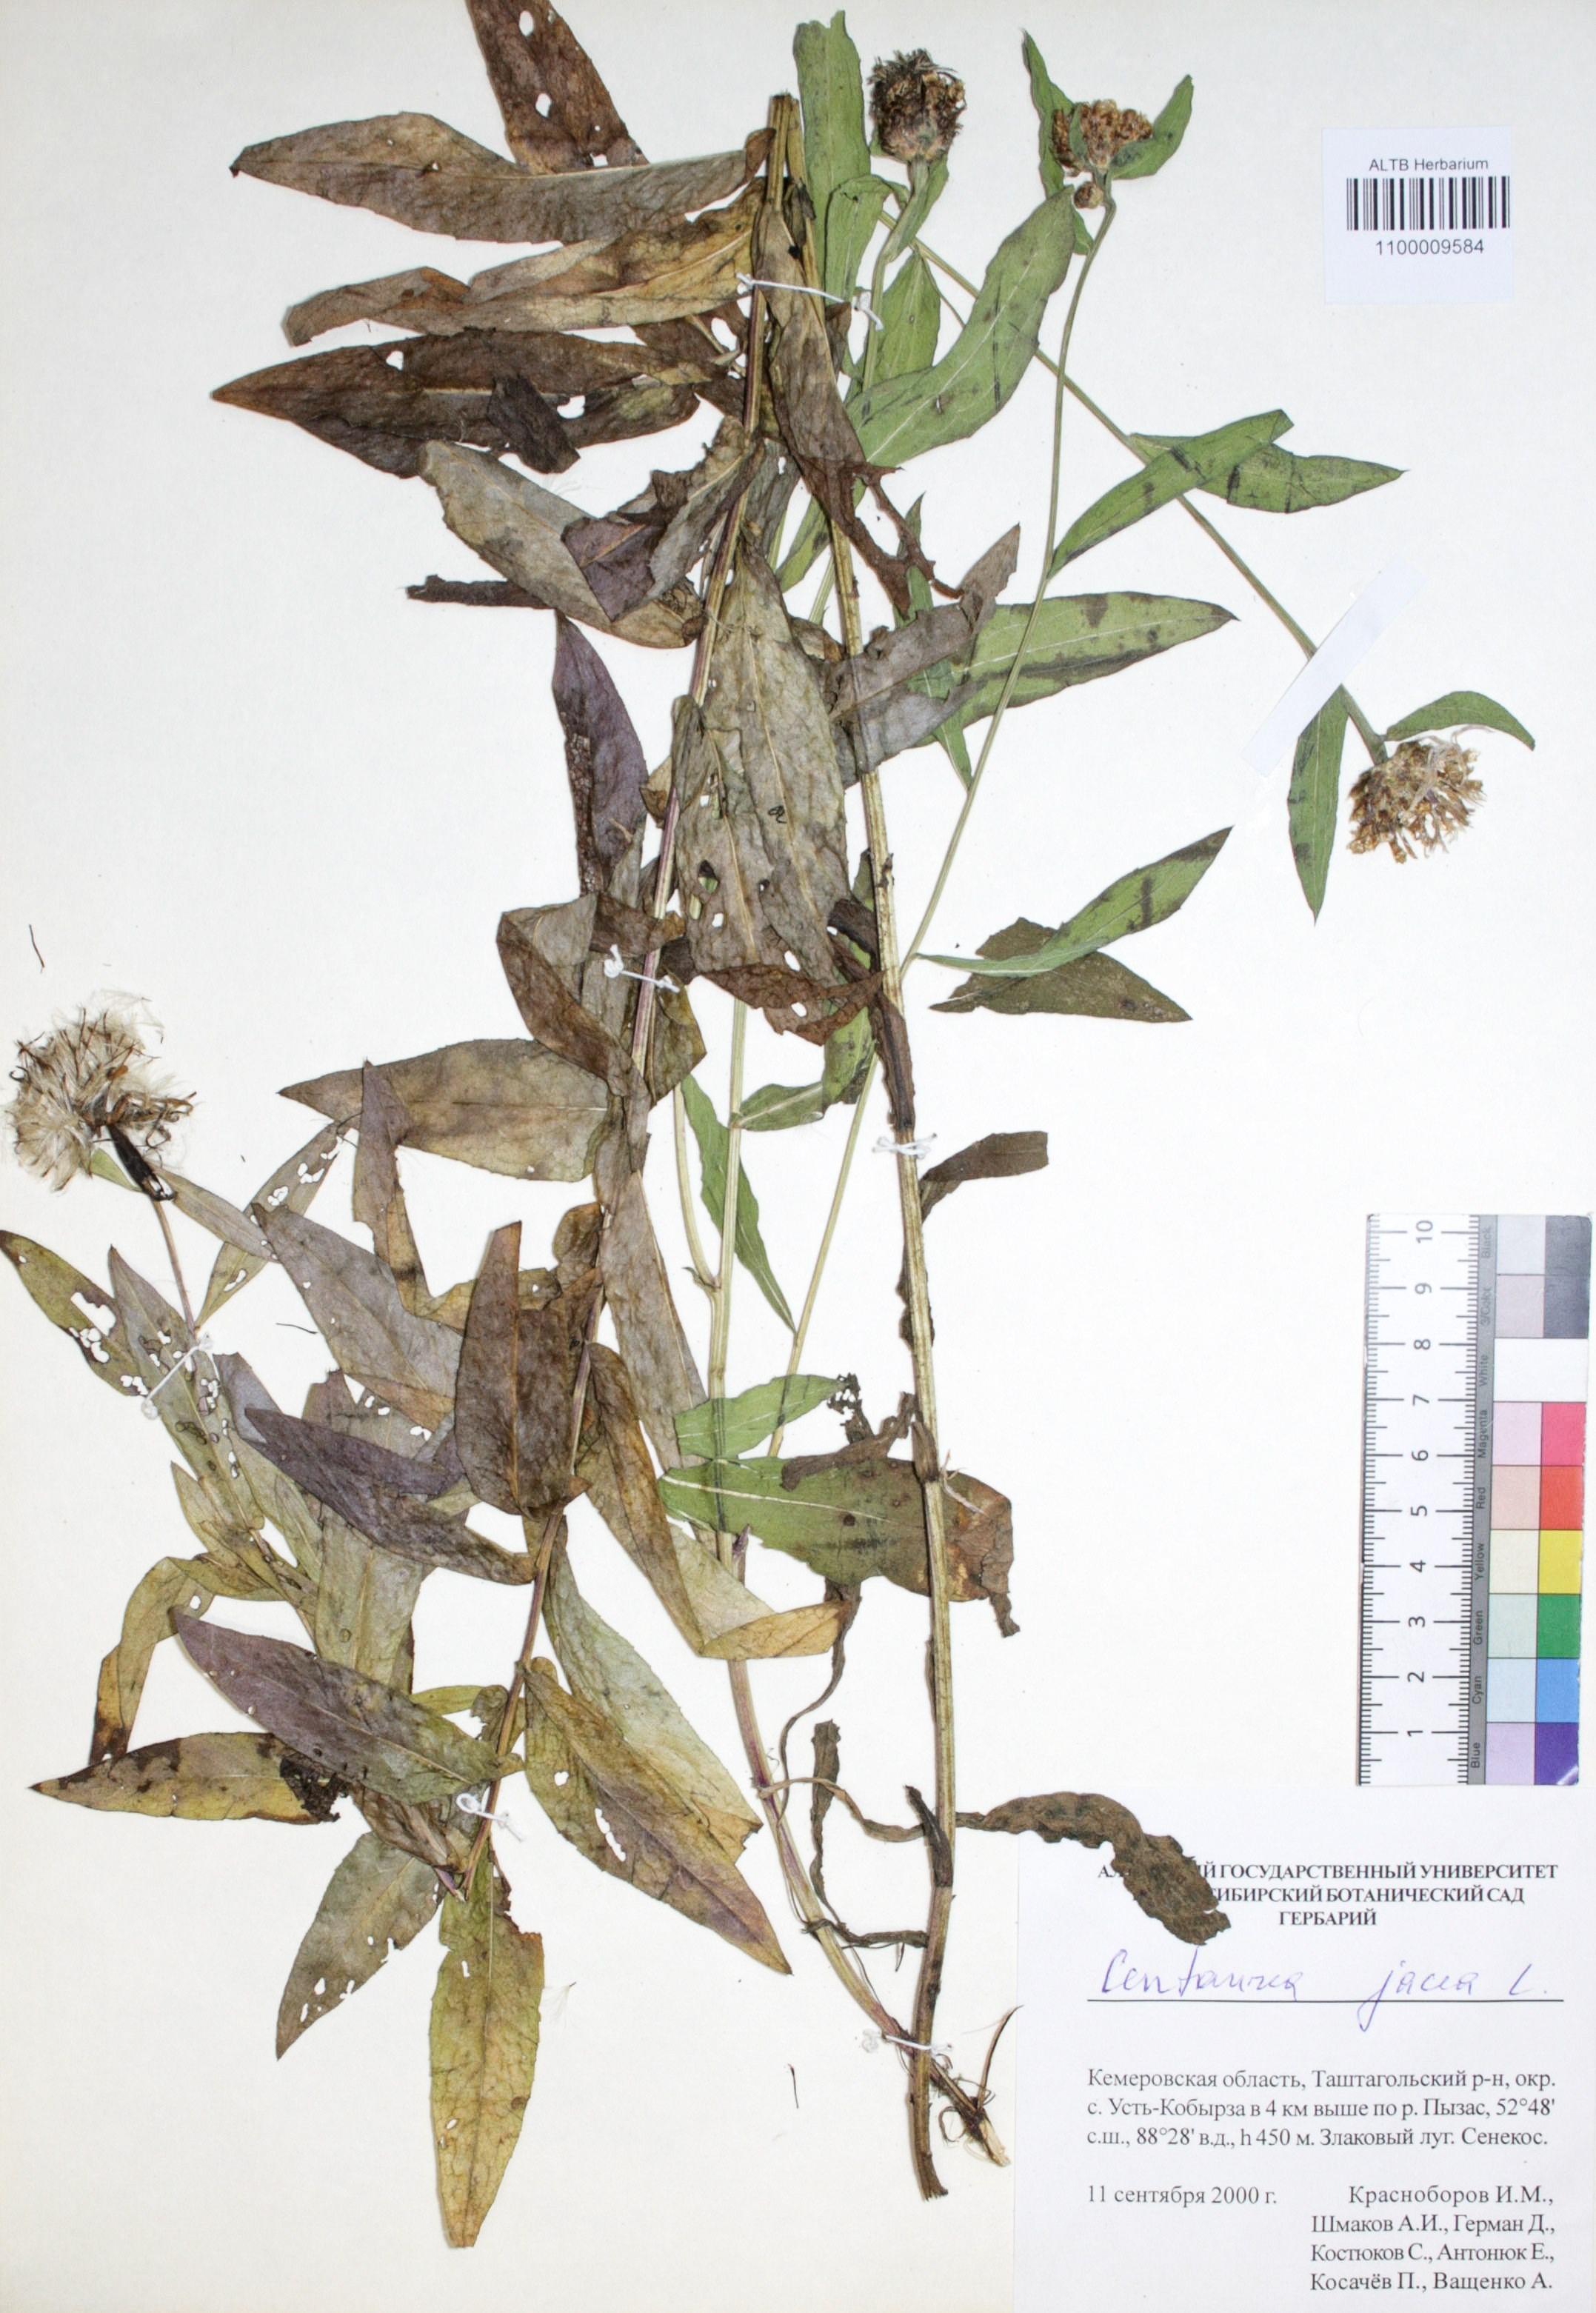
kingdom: Plantae
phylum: Tracheophyta
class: Magnoliopsida
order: Asterales
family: Asteraceae
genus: Centaurea
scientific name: Centaurea jacea
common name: Brown knapweed
